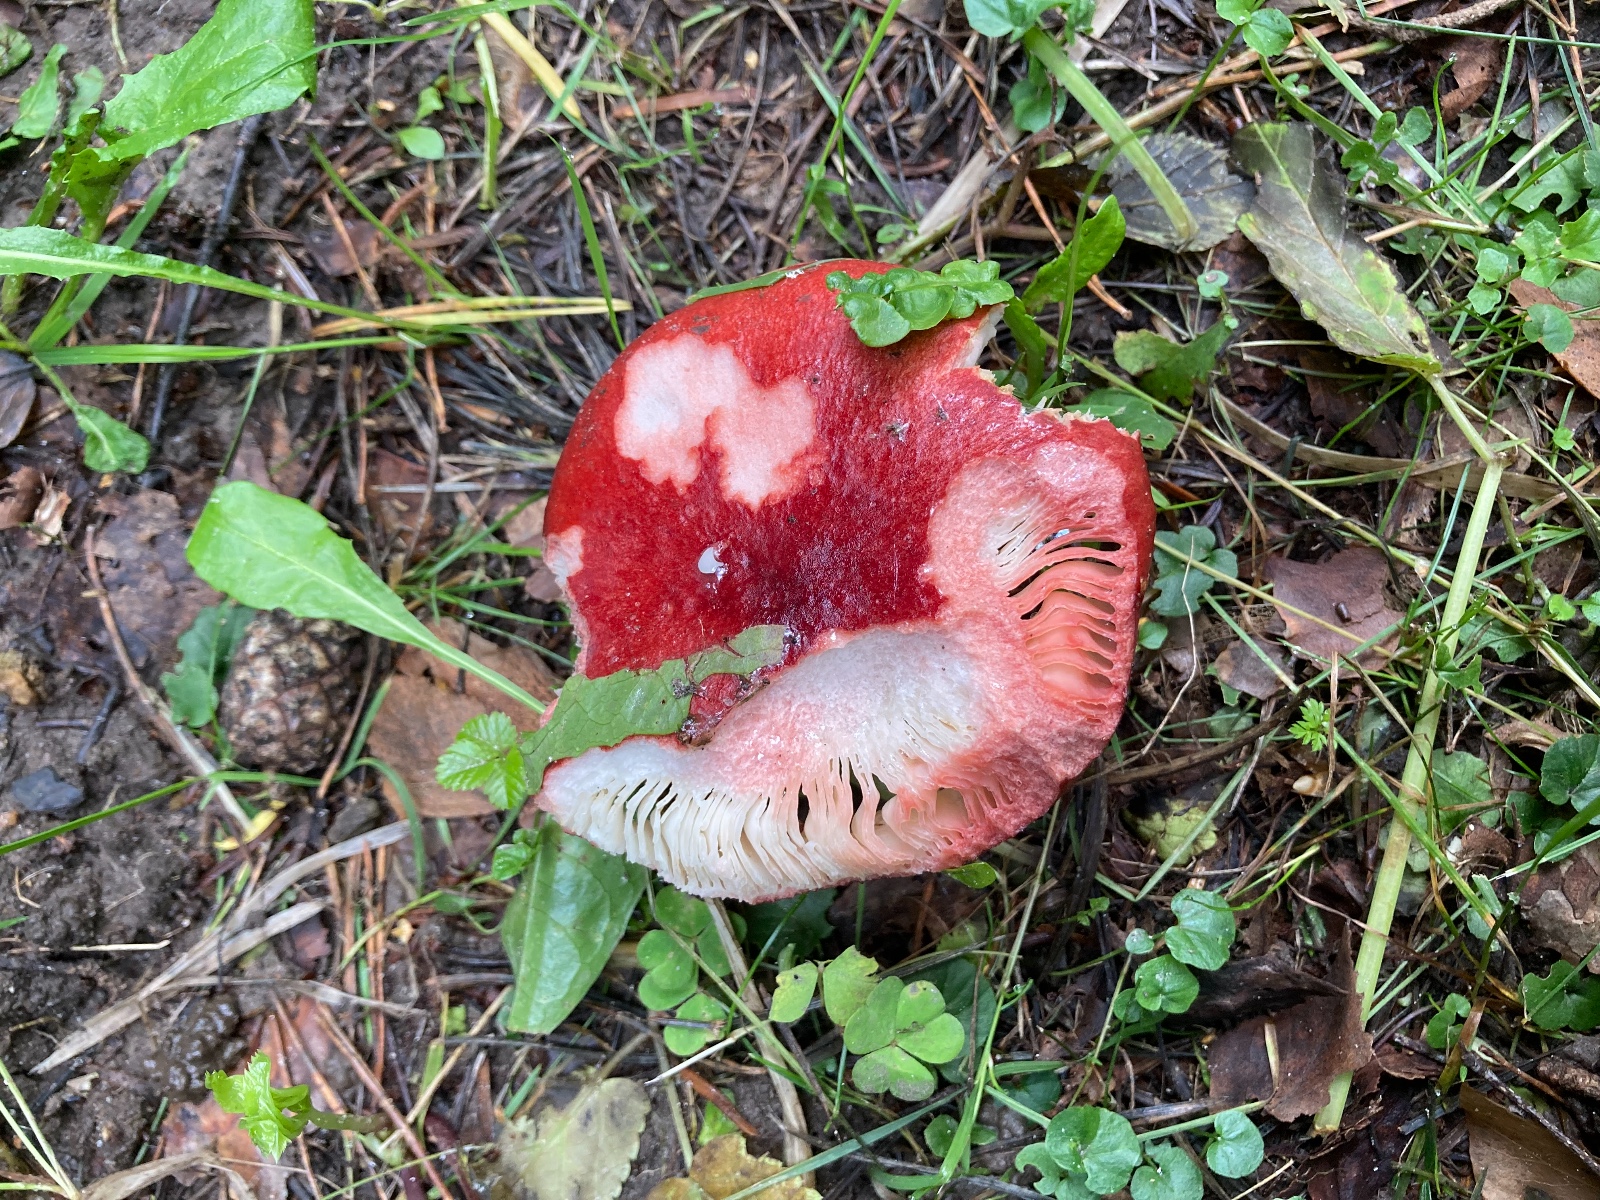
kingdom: Fungi
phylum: Basidiomycota
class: Agaricomycetes
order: Russulales
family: Russulaceae
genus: Russula
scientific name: Russula sanguinea
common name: blodrød skørhat
